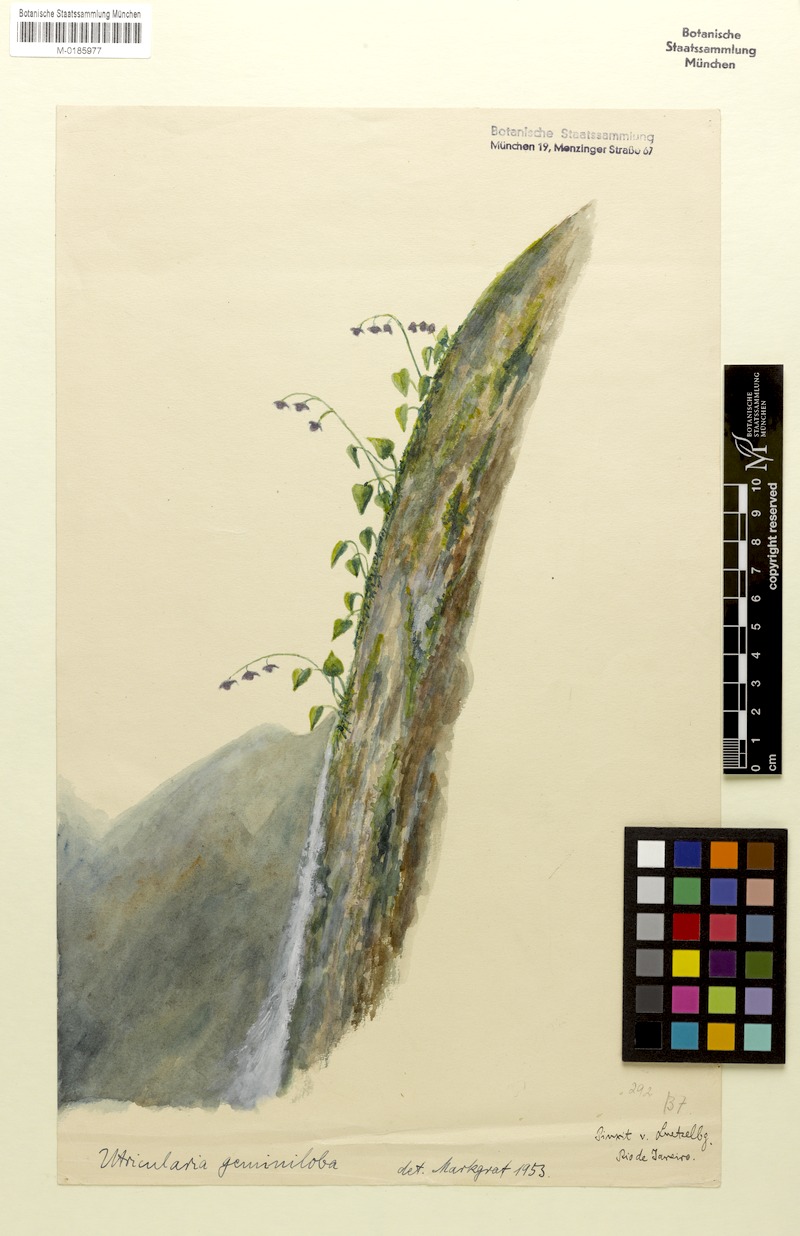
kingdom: Plantae
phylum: Tracheophyta
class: Magnoliopsida
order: Lamiales
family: Lentibulariaceae
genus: Utricularia
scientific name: Utricularia geminiloba
